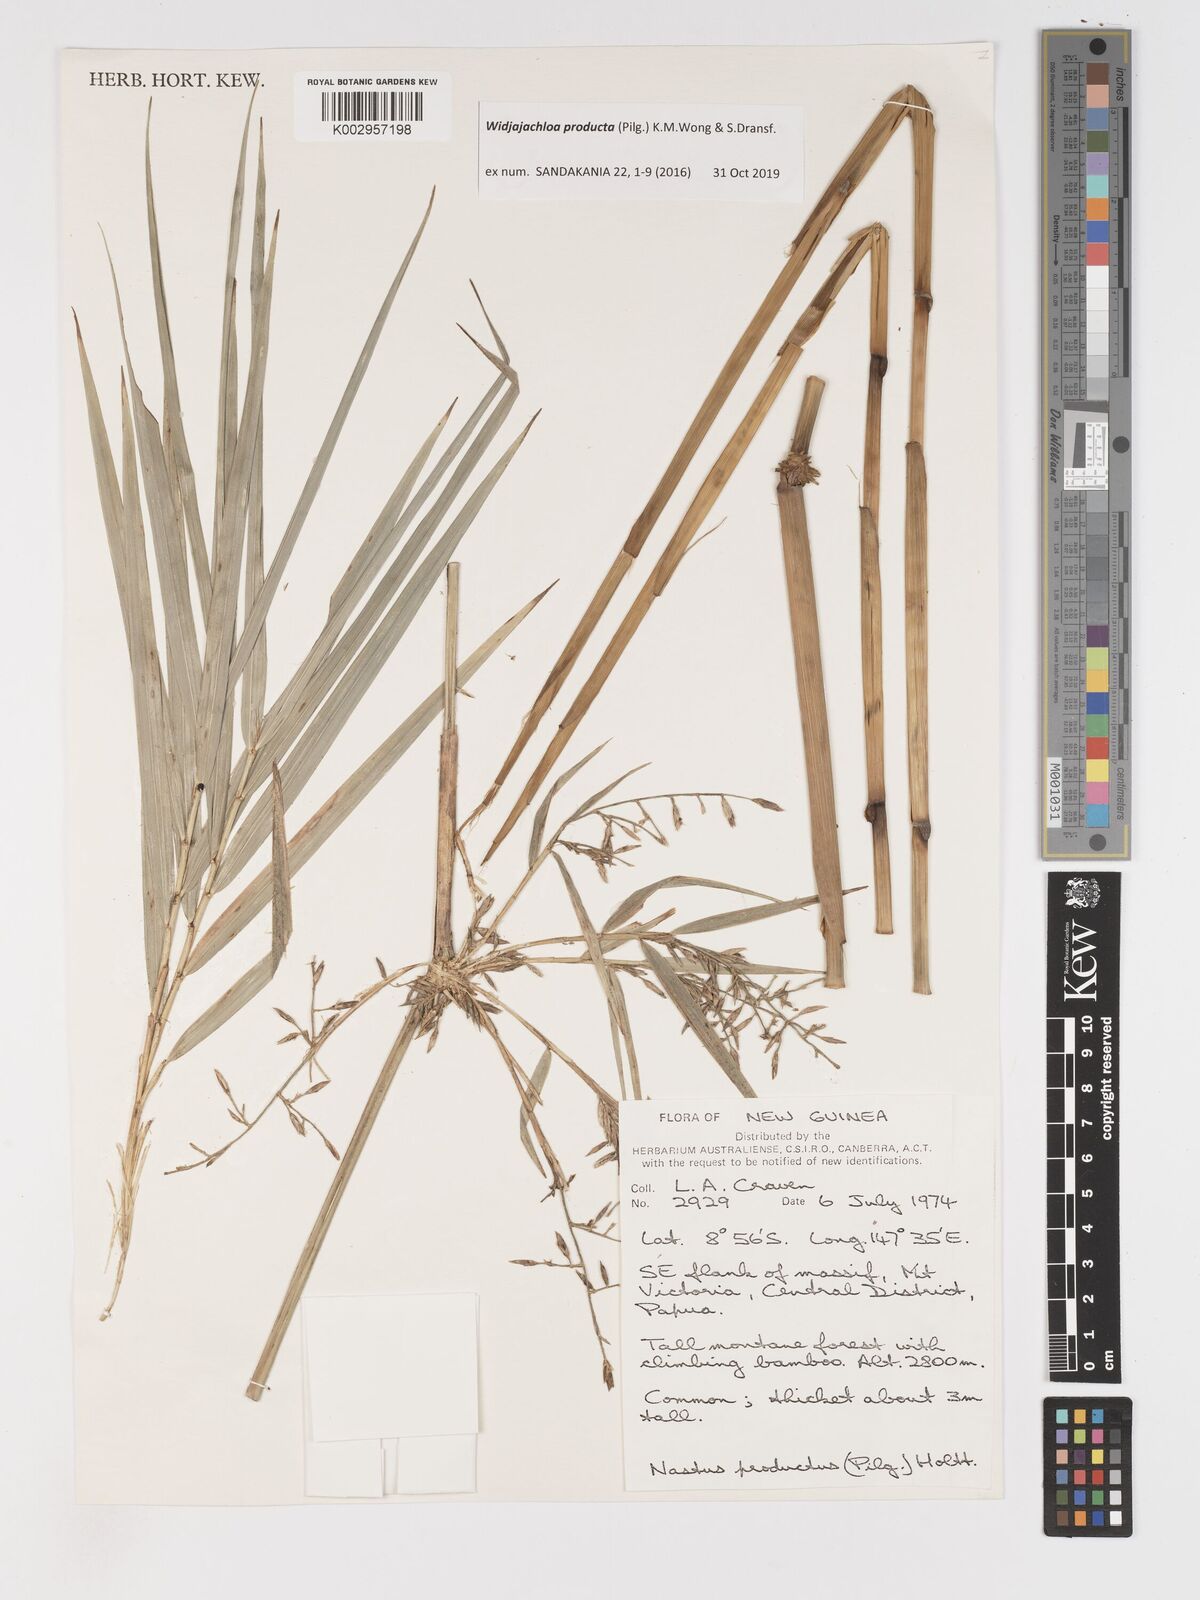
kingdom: Plantae
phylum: Tracheophyta
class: Liliopsida
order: Poales
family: Poaceae
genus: Widjajachloa
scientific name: Widjajachloa
